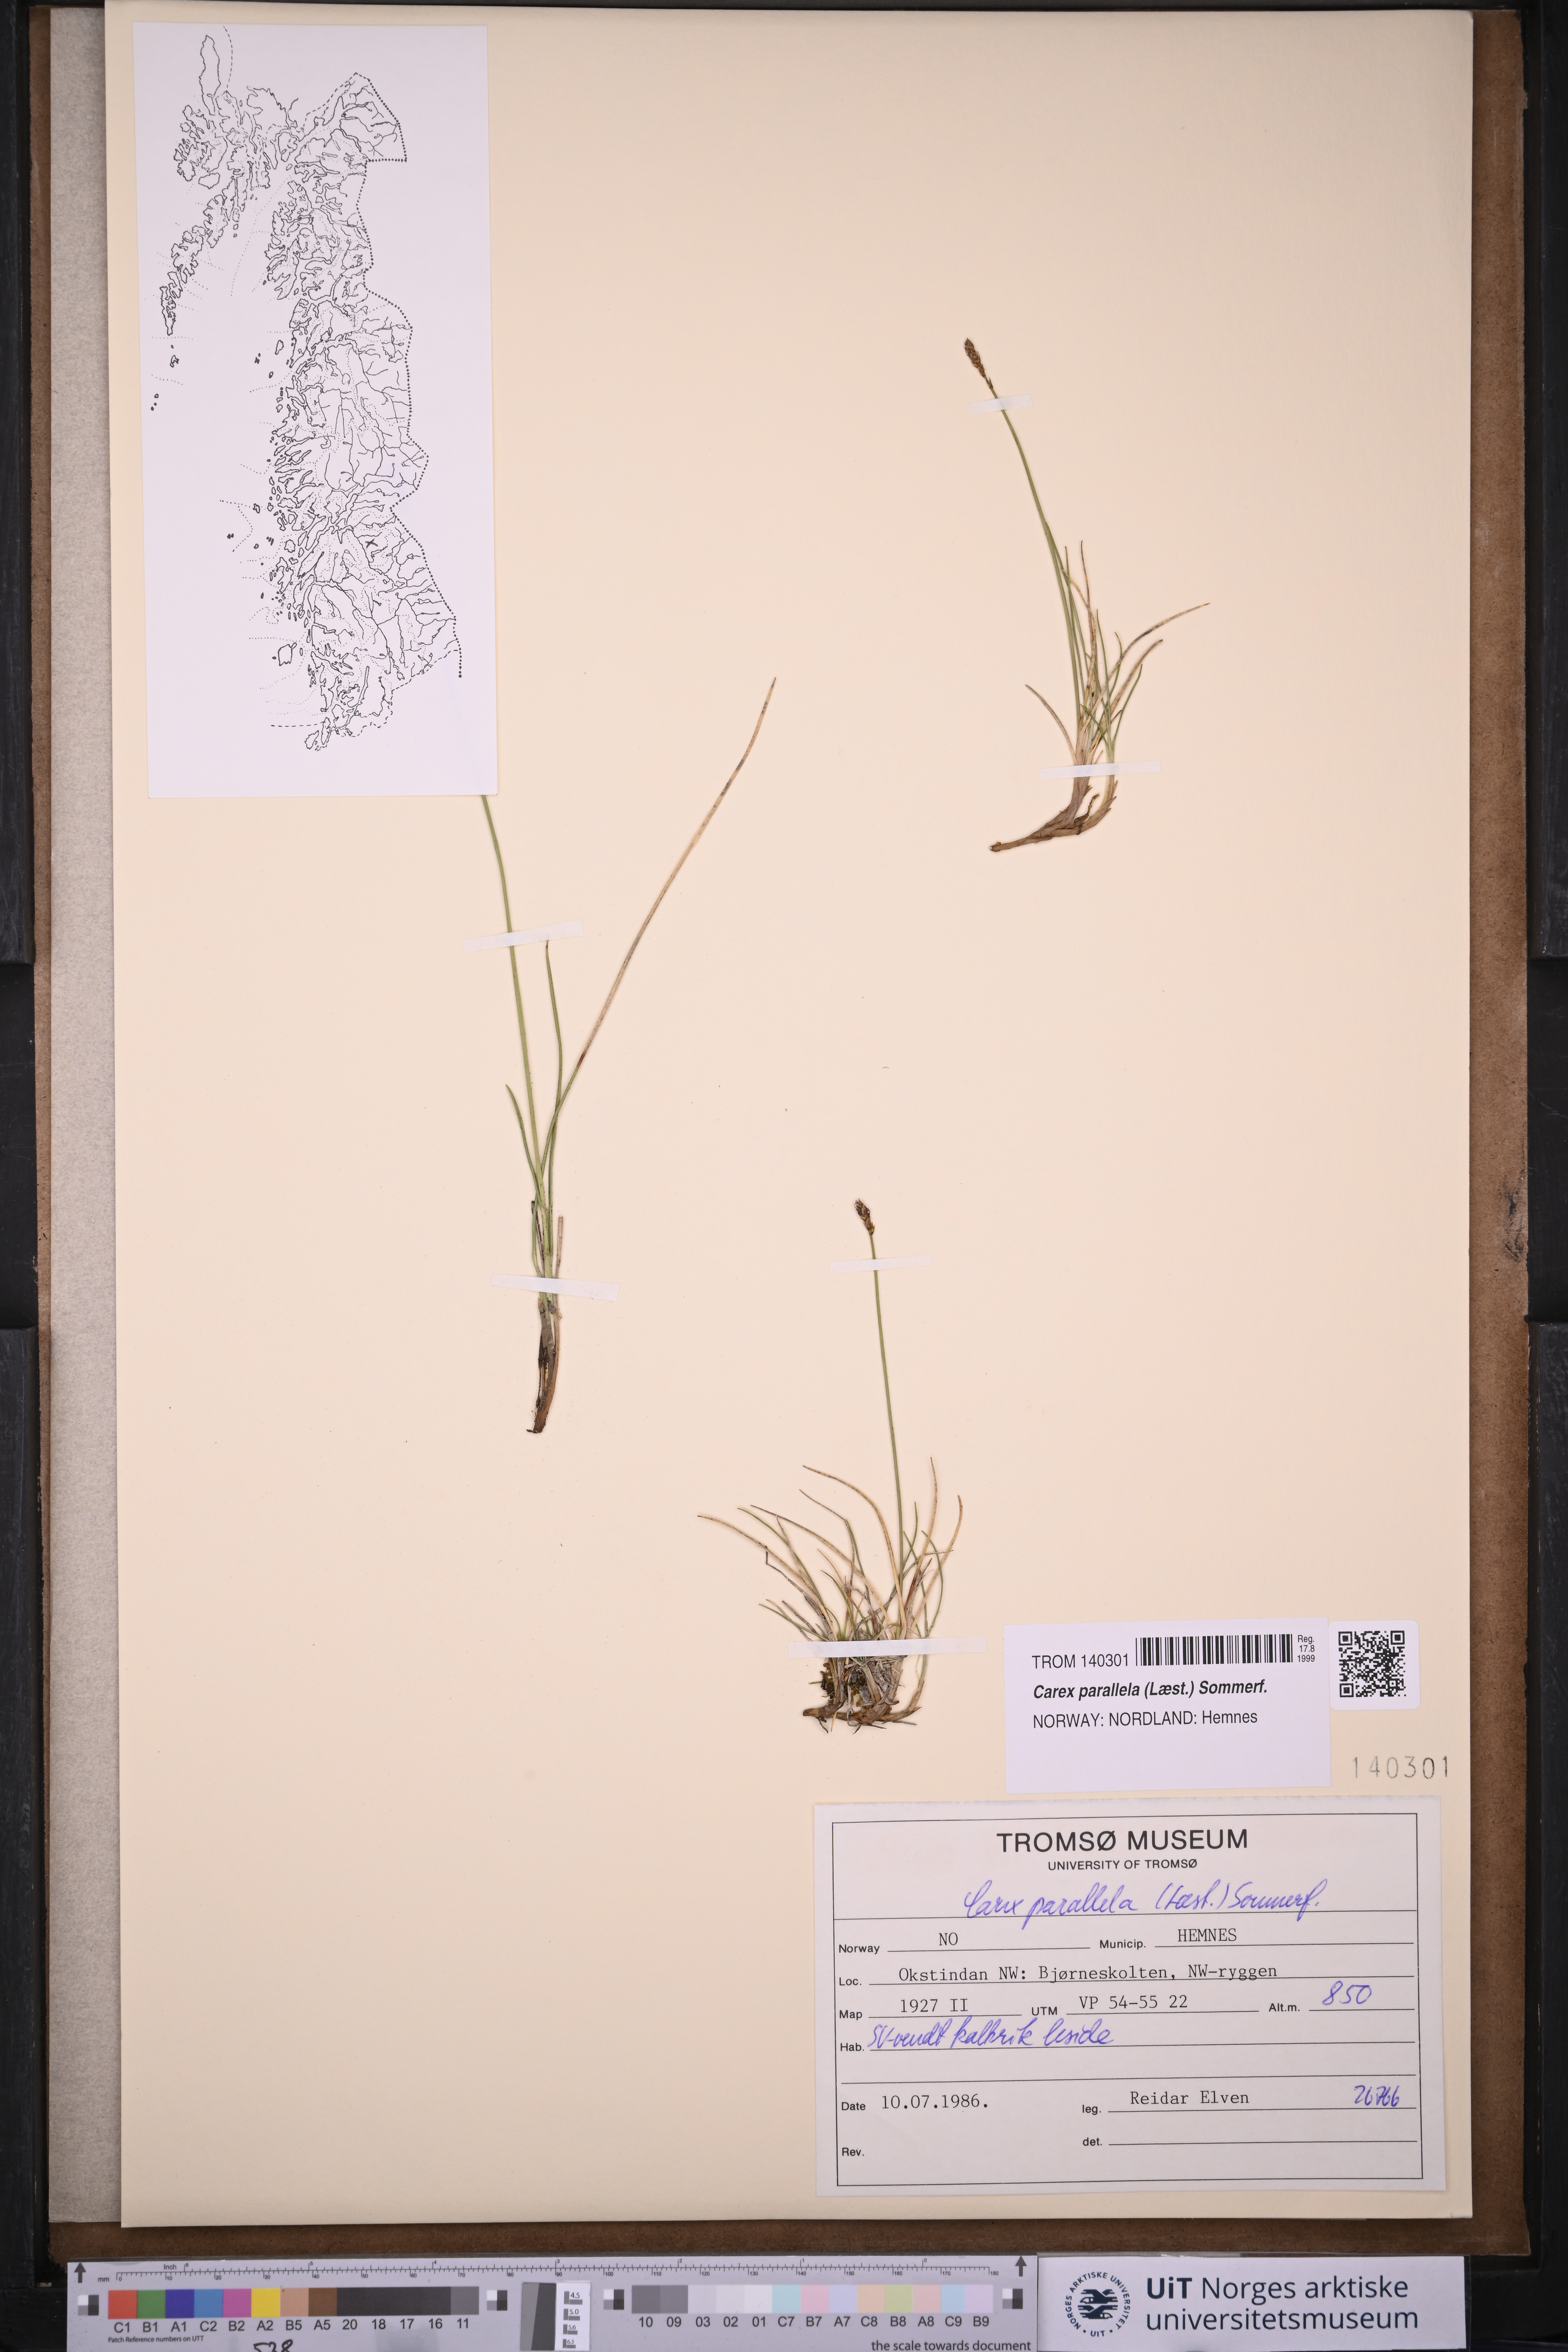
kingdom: Plantae
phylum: Tracheophyta
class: Liliopsida
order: Poales
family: Cyperaceae
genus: Carex
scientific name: Carex parallela
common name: Parallel sedge
